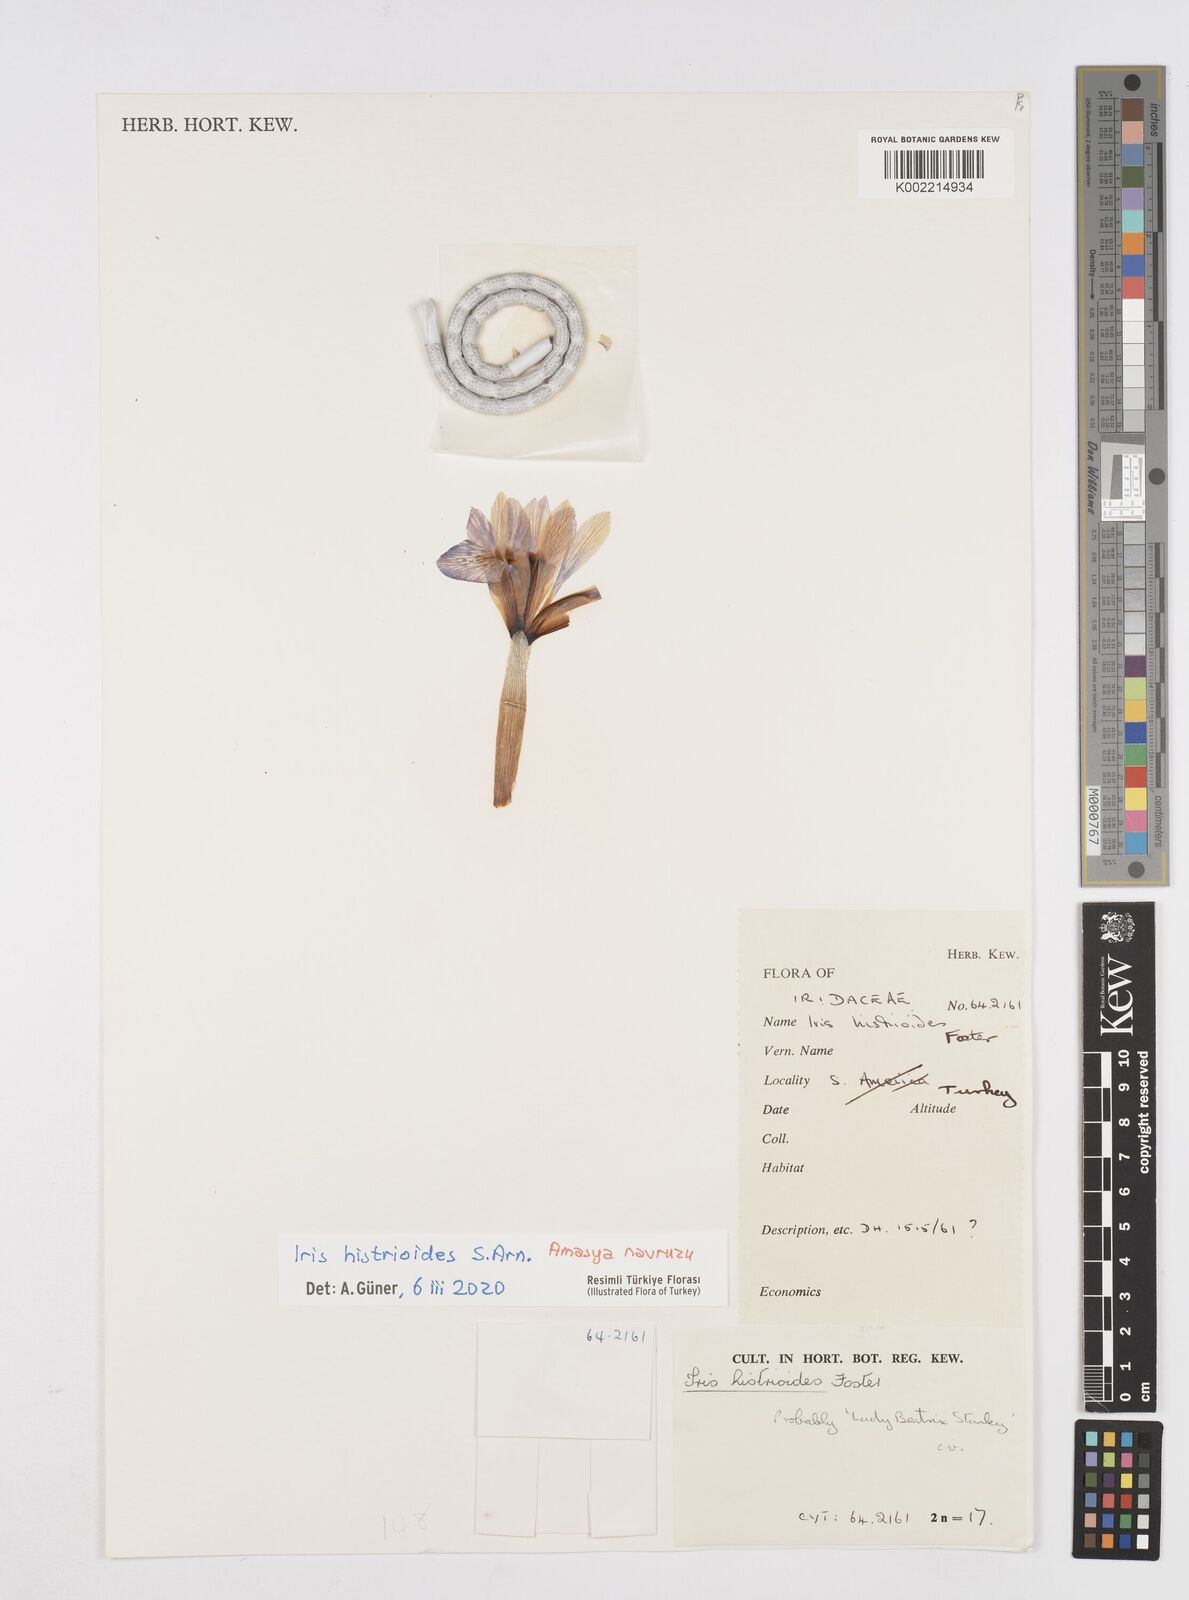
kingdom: Plantae
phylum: Tracheophyta
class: Liliopsida
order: Asparagales
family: Iridaceae
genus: Iris
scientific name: Iris histrioides
